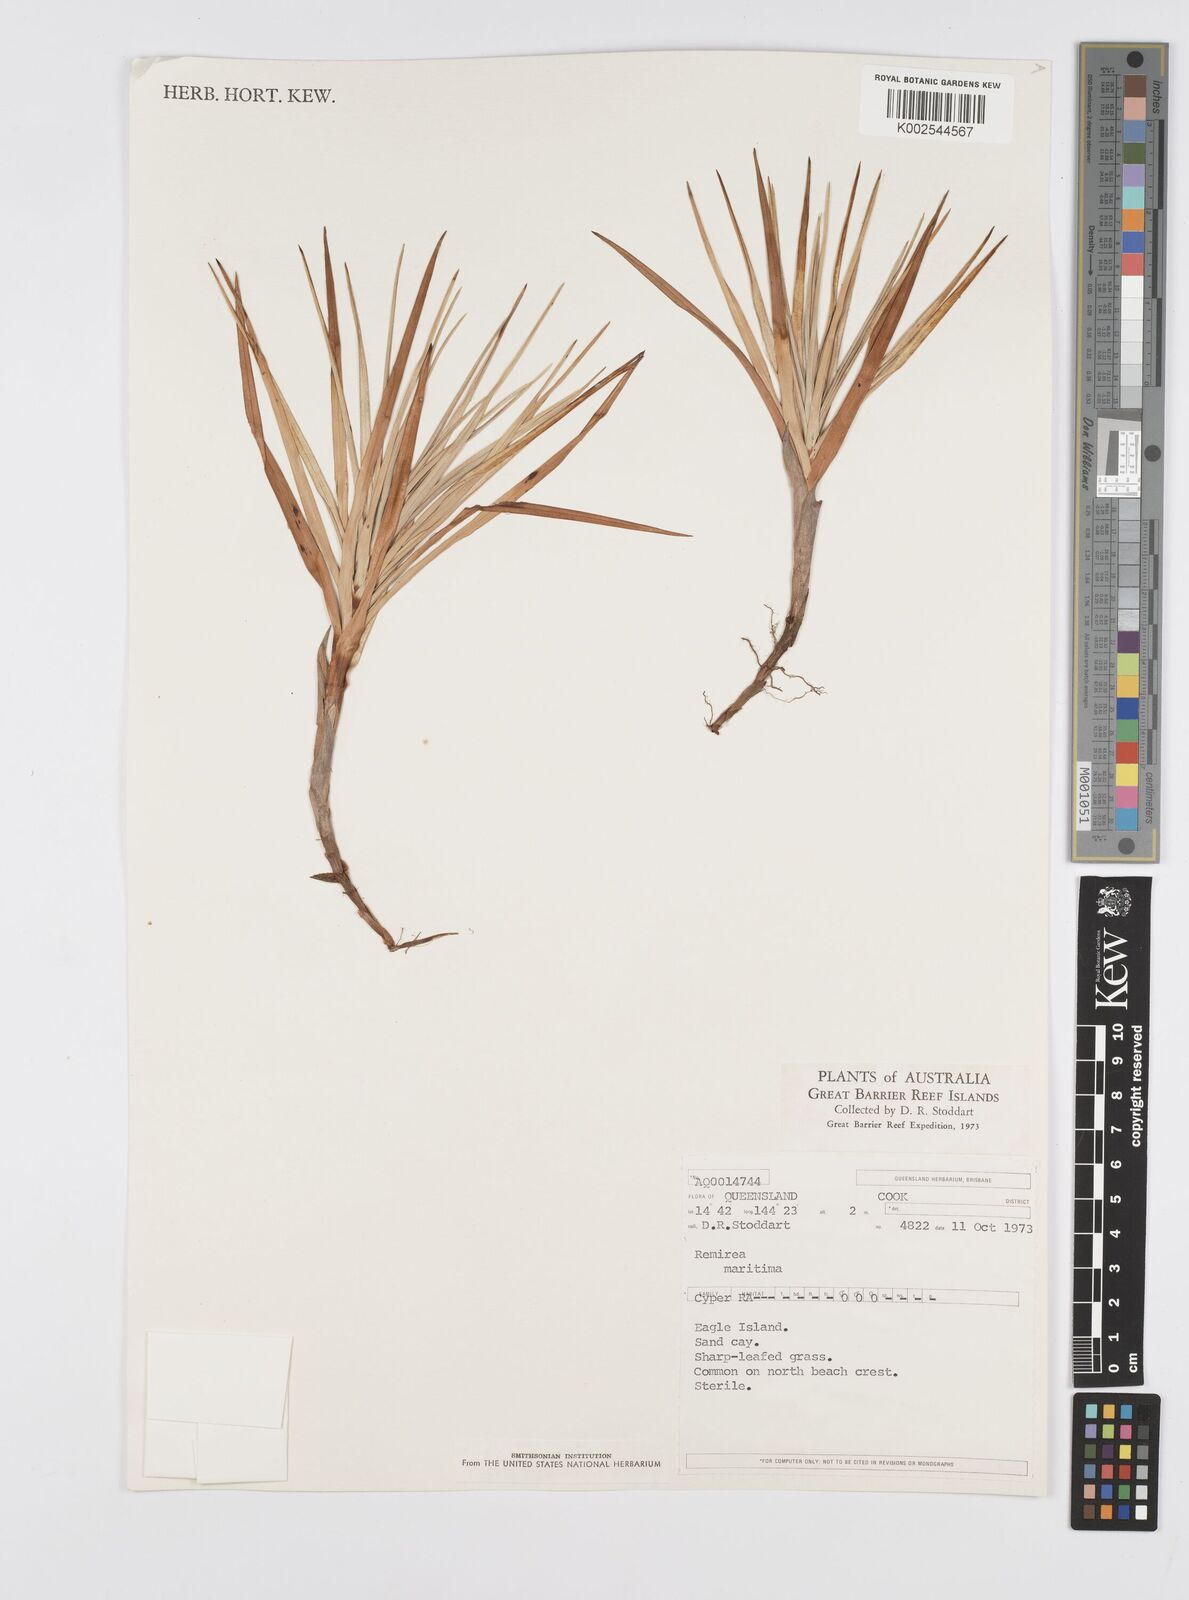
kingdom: Plantae
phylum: Tracheophyta
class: Liliopsida
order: Poales
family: Cyperaceae
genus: Cyperus
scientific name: Cyperus
